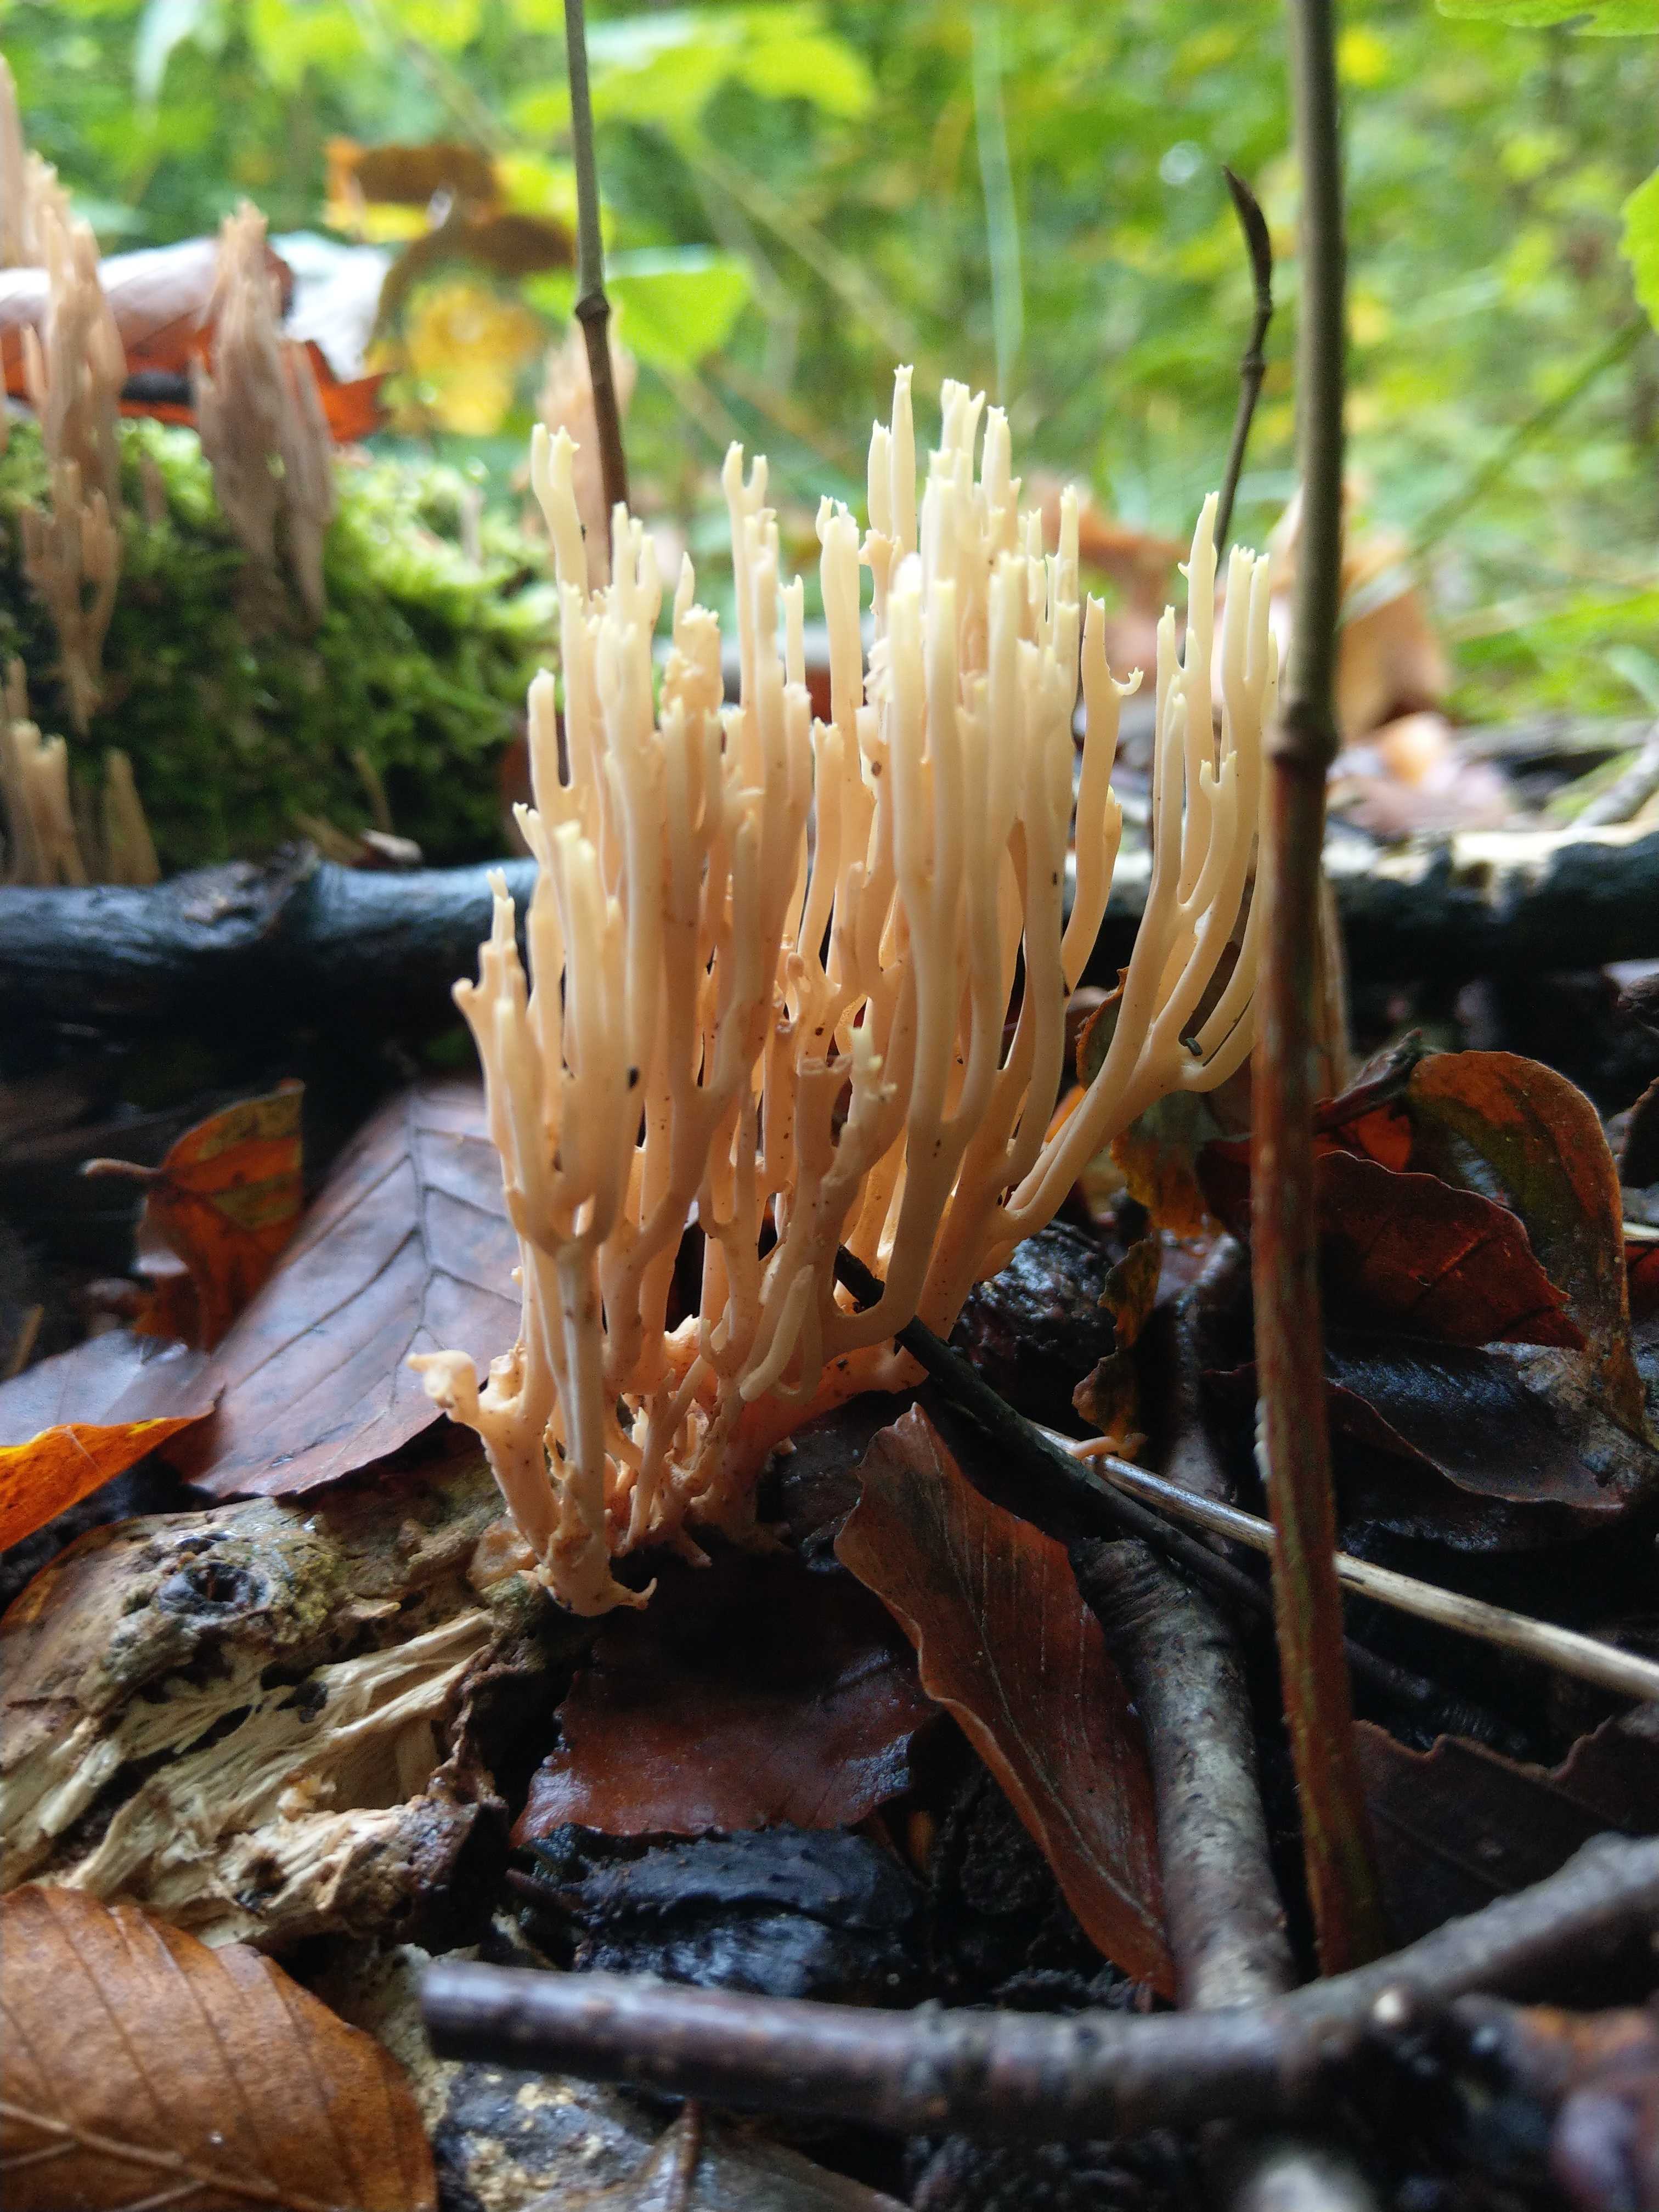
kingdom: Fungi
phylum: Basidiomycota
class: Agaricomycetes
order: Gomphales
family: Gomphaceae
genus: Ramaria
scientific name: Ramaria stricta
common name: rank koralsvamp
